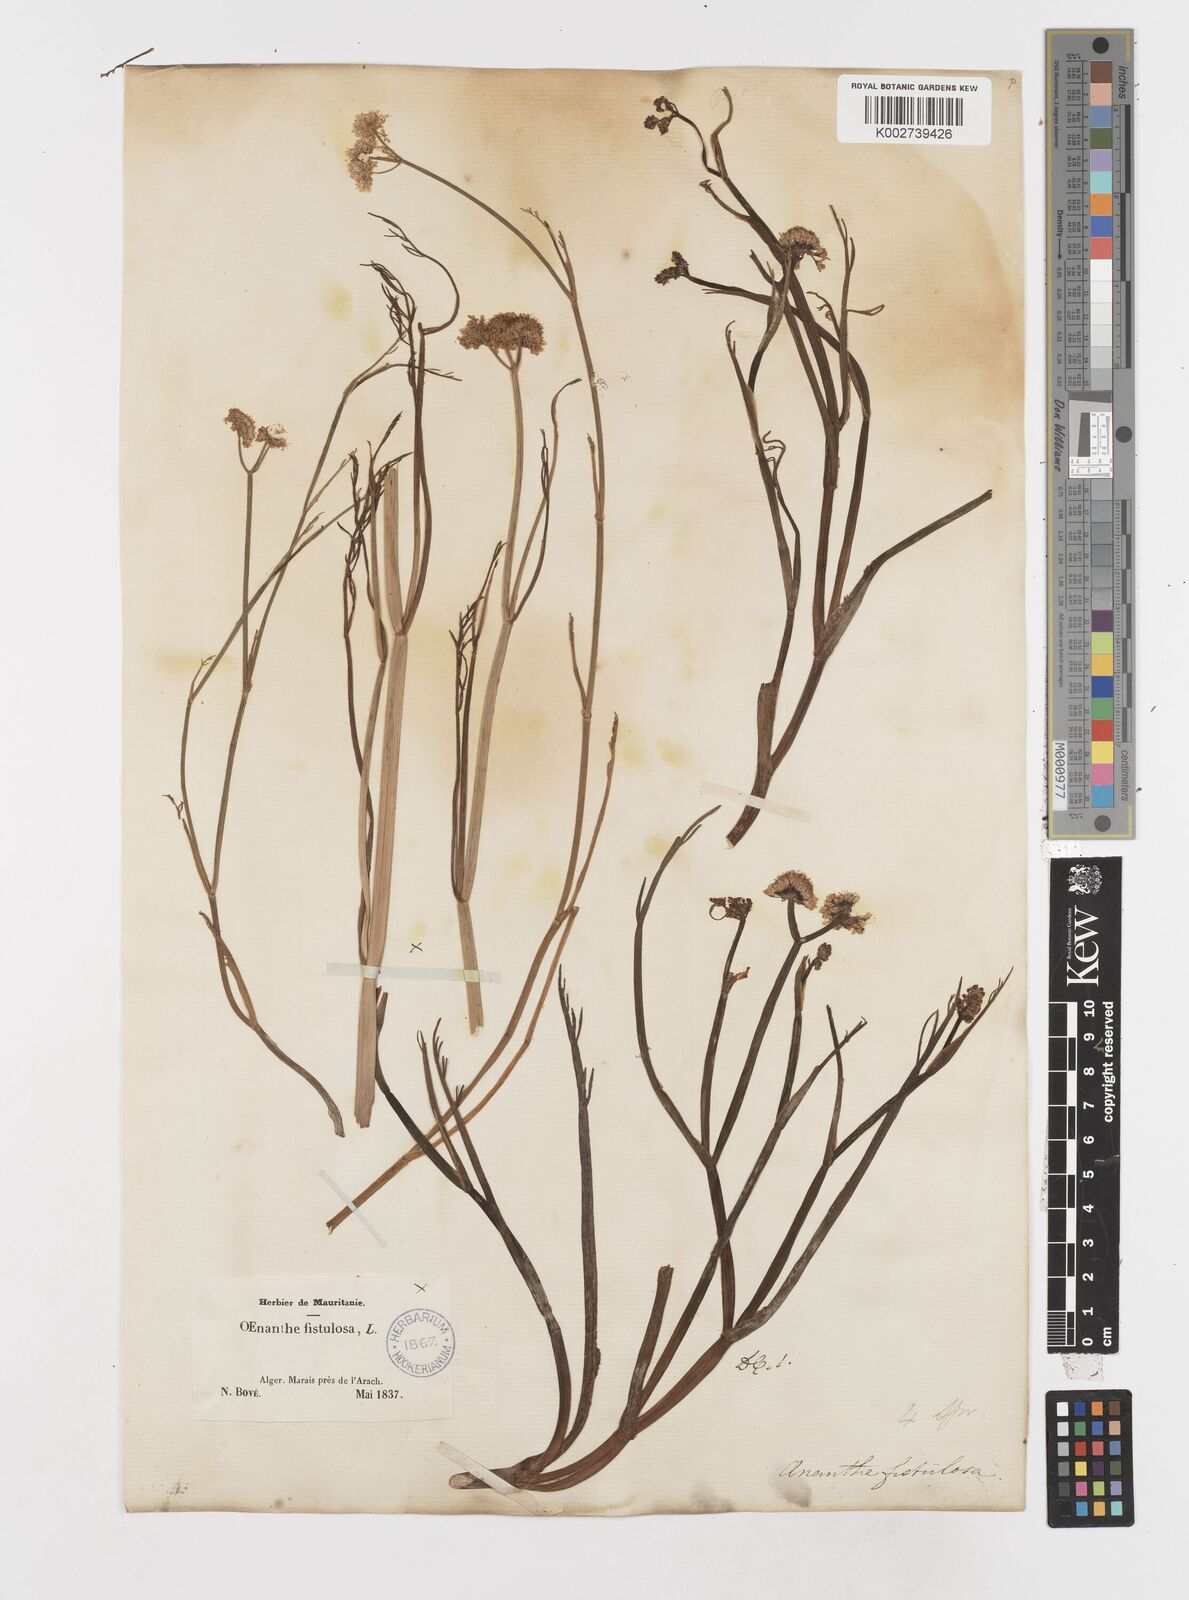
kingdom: Plantae
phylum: Tracheophyta
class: Magnoliopsida
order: Apiales
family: Apiaceae
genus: Oenanthe
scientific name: Oenanthe fistulosa
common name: Tubular water-dropwort
